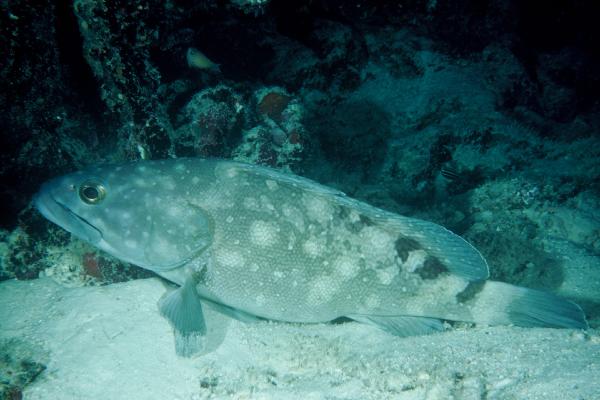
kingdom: Animalia
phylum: Chordata
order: Perciformes
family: Serranidae
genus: Epinephelus
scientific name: Epinephelus coeruleopunctatus
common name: Whitespotted grouper
